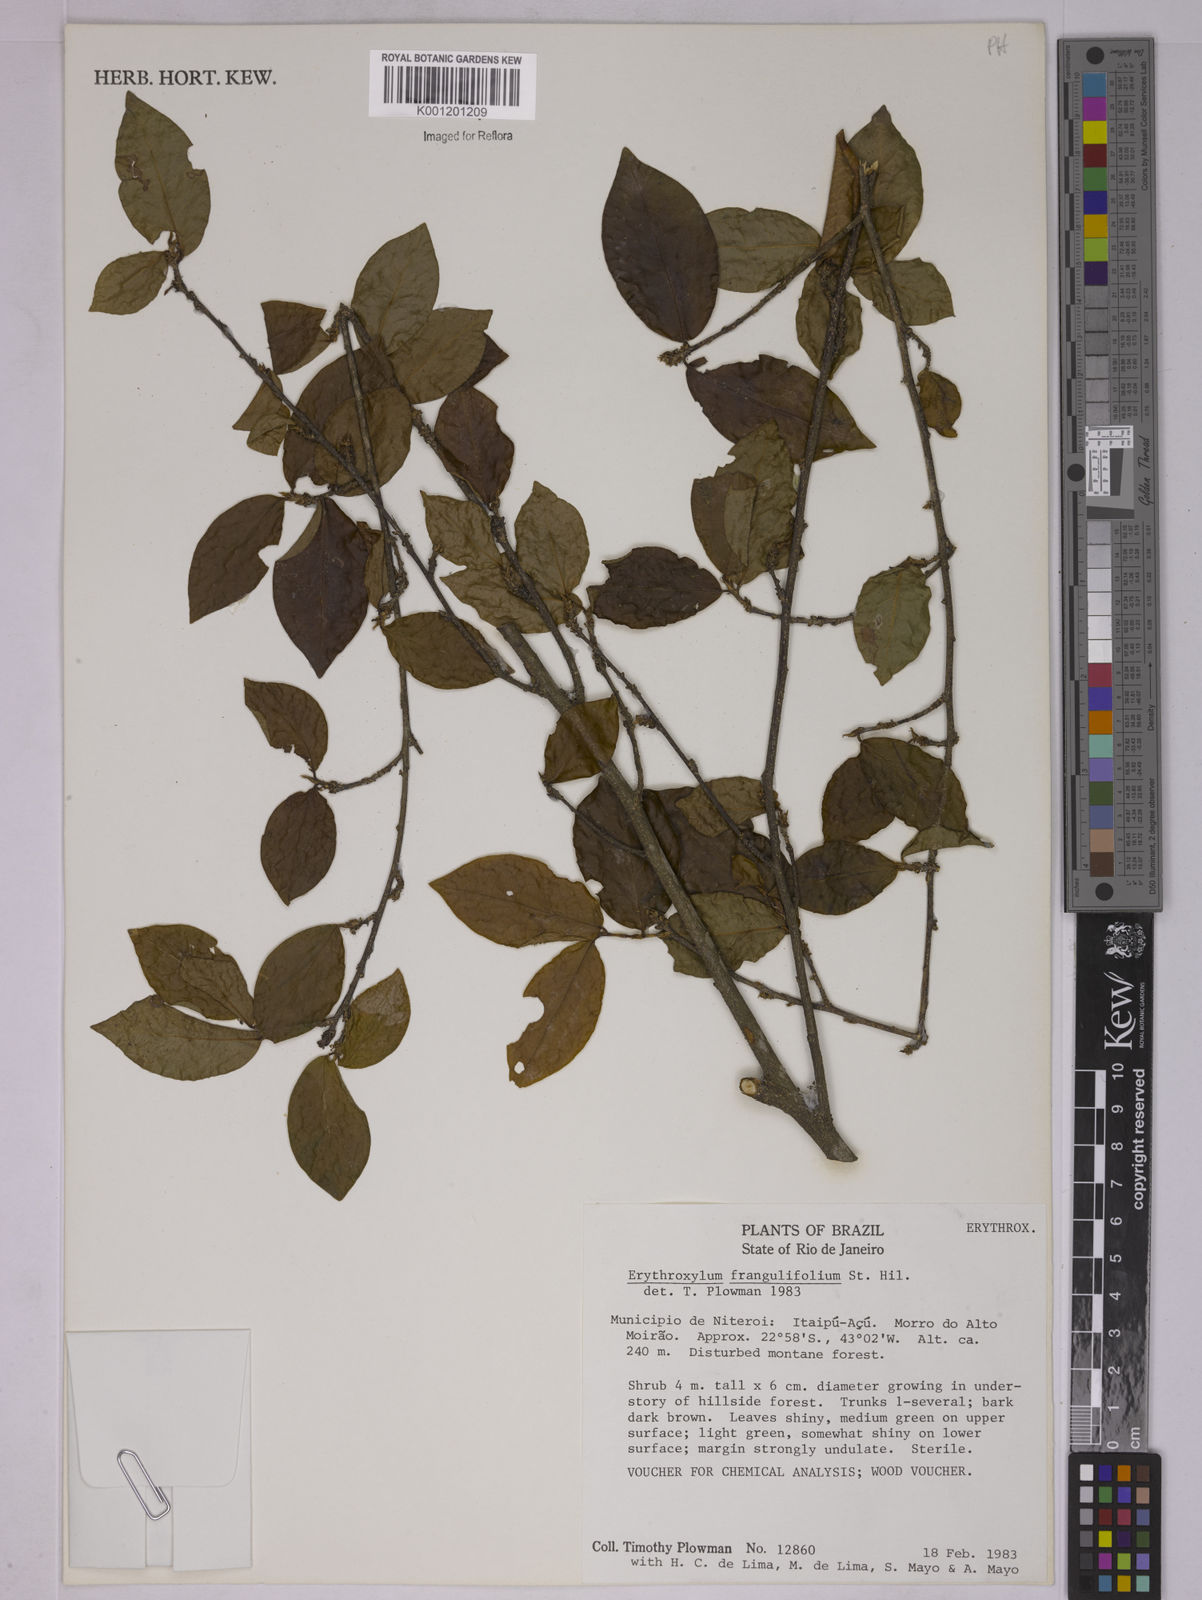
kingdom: Plantae
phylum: Tracheophyta
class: Magnoliopsida
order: Malpighiales
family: Erythroxylaceae
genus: Erythroxylum
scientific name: Erythroxylum frangulifolium
